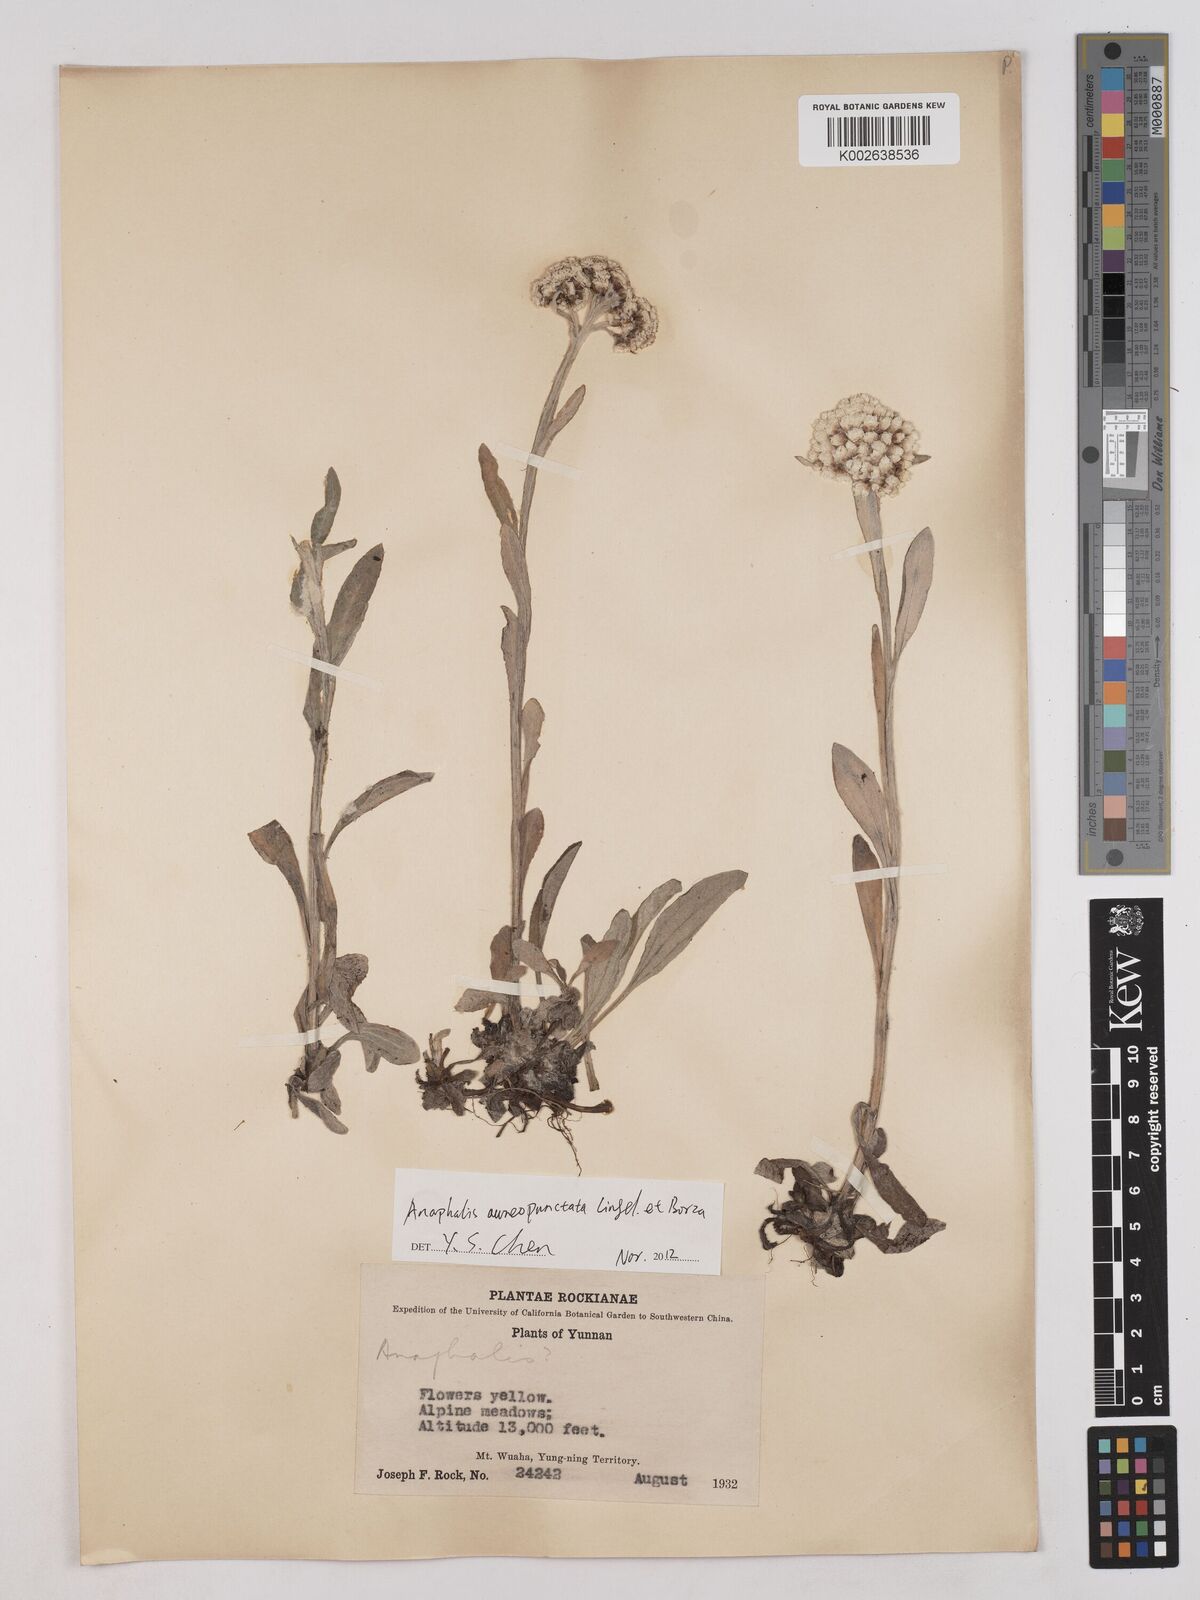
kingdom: Plantae
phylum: Tracheophyta
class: Magnoliopsida
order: Asterales
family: Asteraceae
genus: Anaphalis
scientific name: Anaphalis
